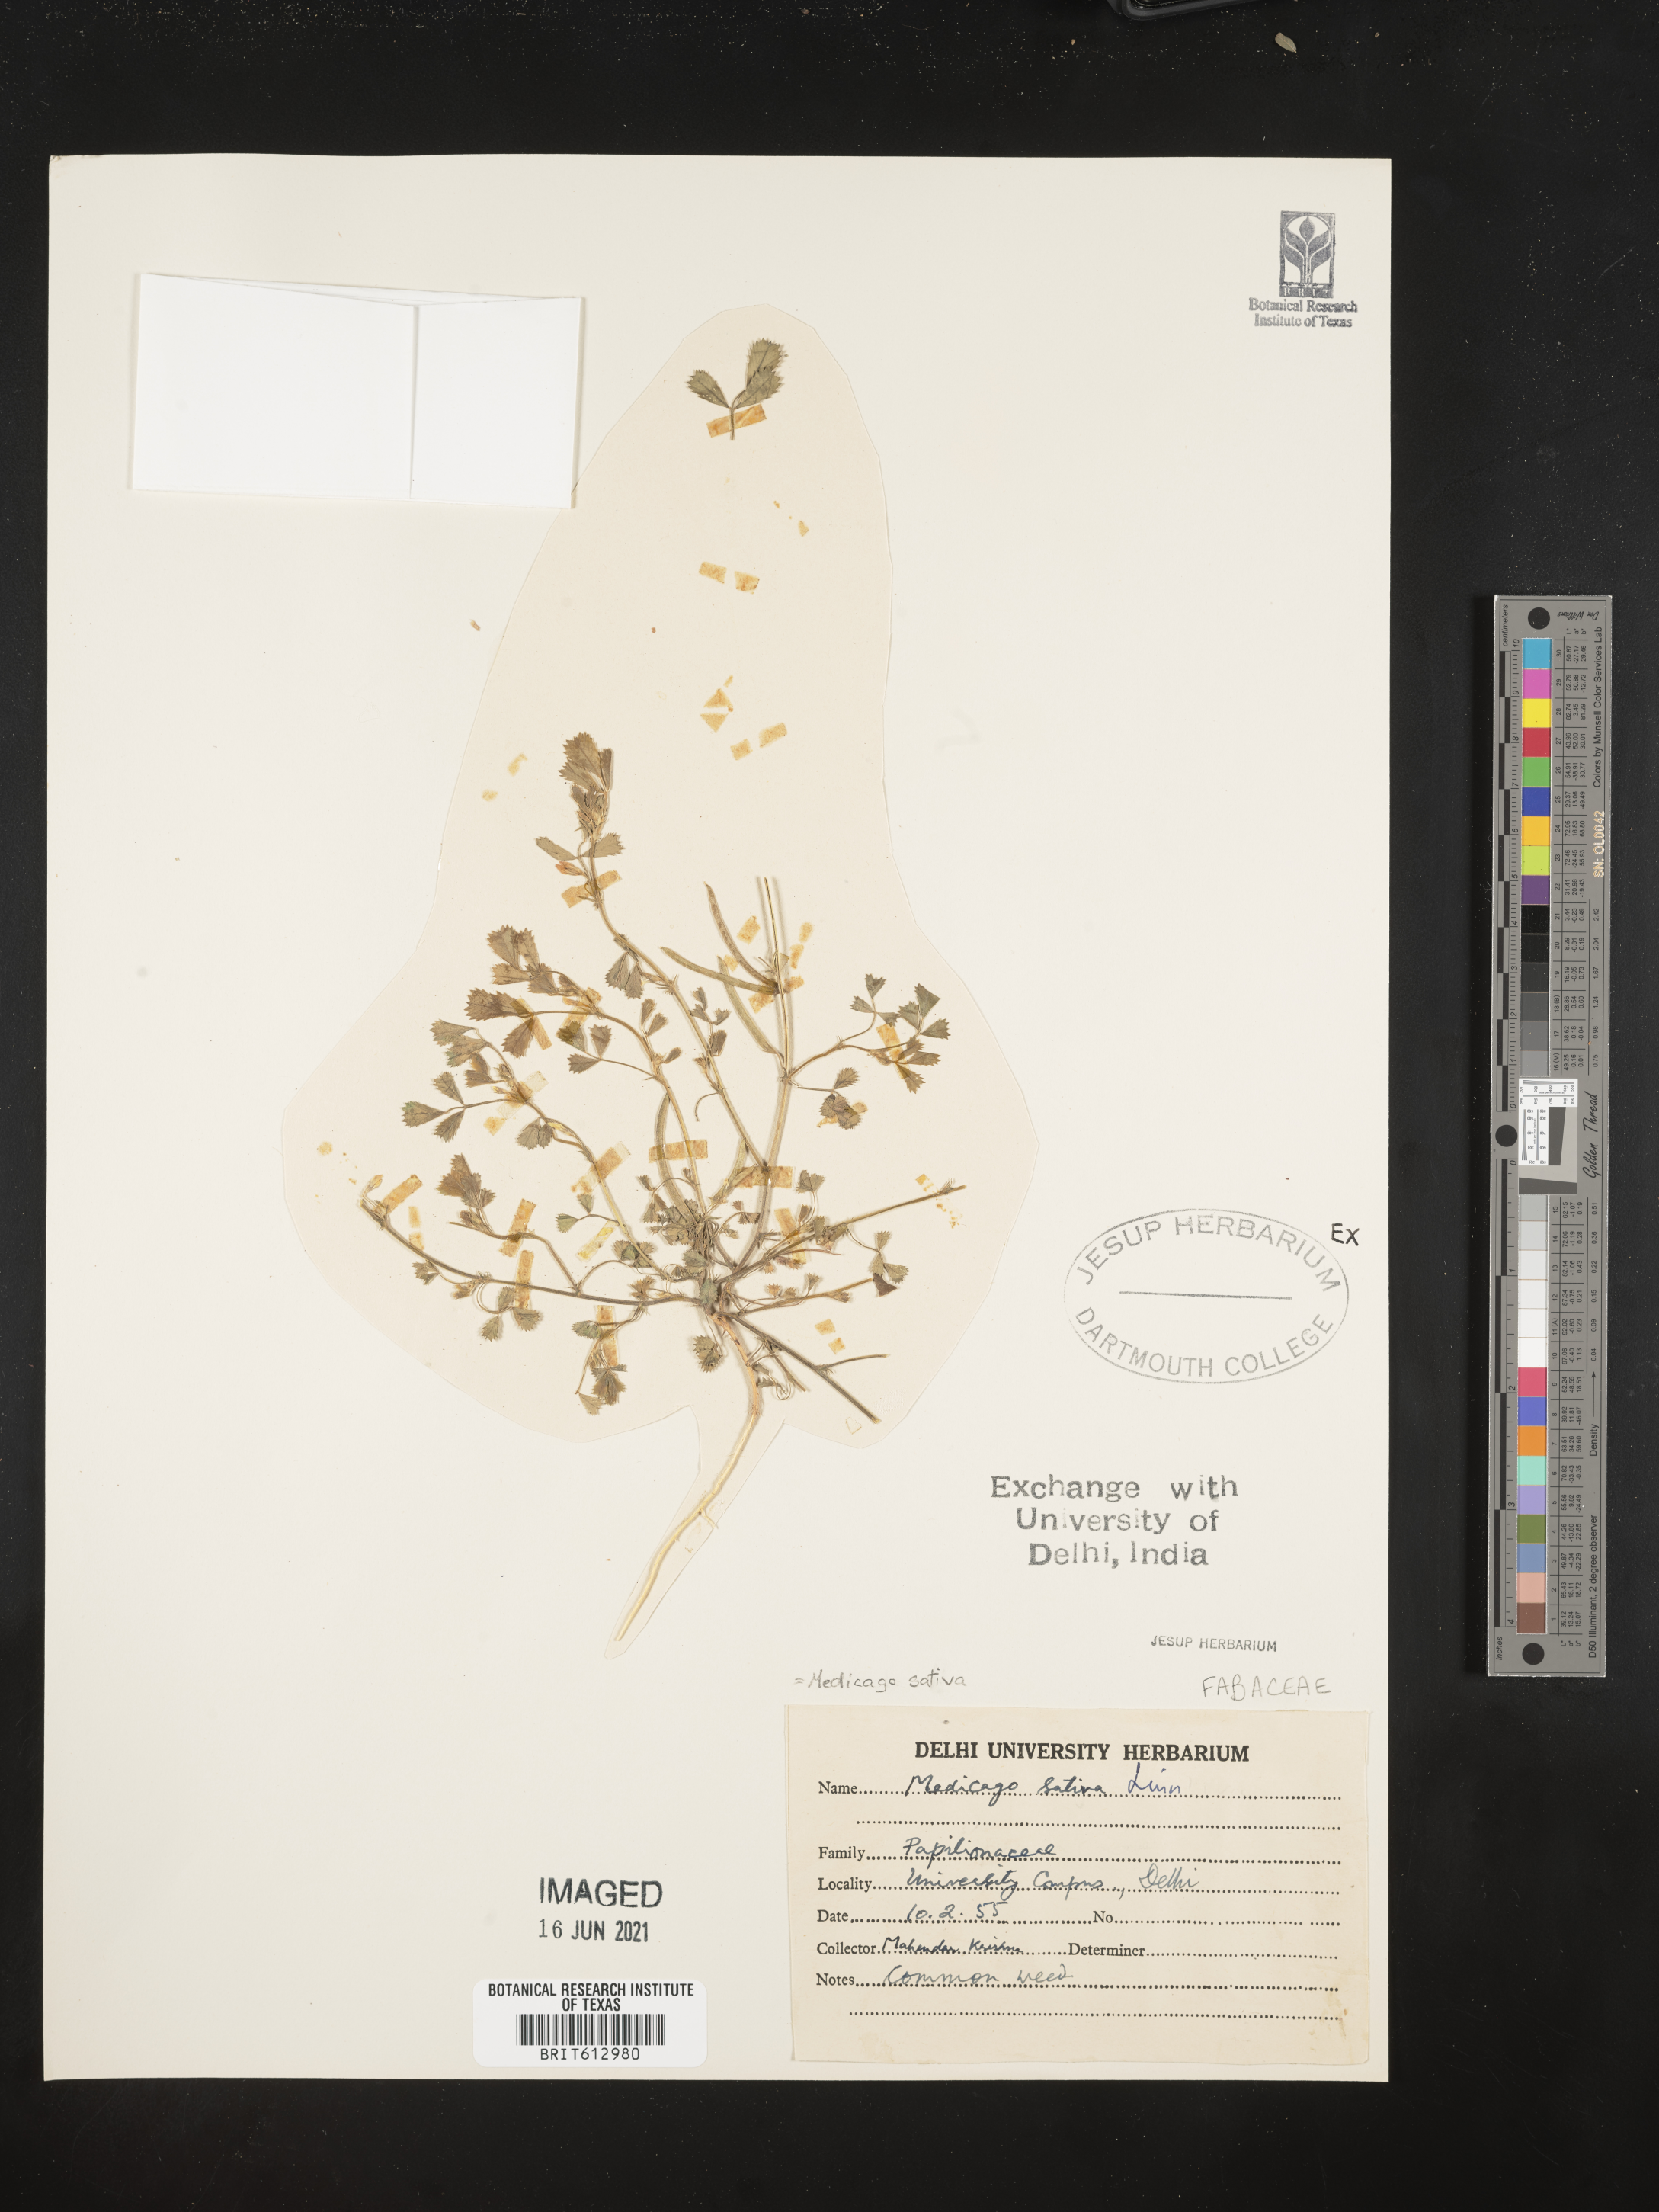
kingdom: Plantae
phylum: Tracheophyta
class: Magnoliopsida
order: Fabales
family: Fabaceae
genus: Medicago
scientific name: Medicago sativa
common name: Alfalfa
